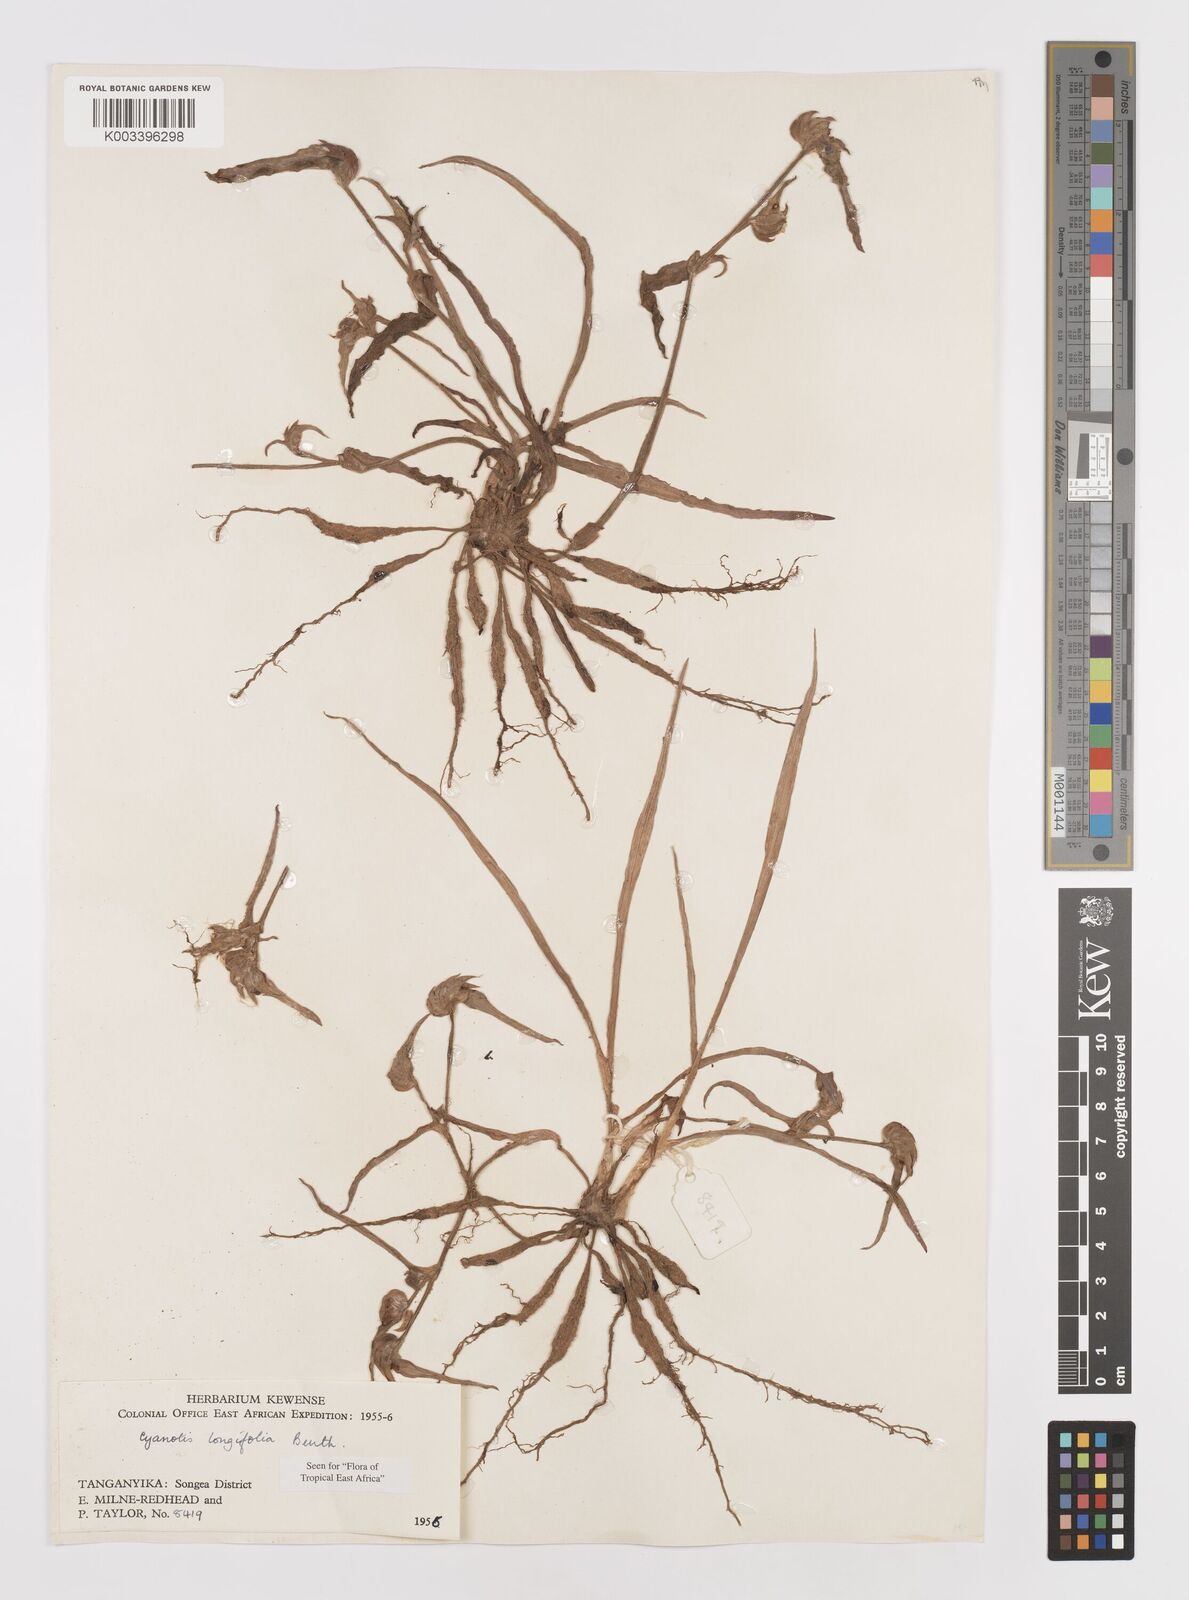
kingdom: Plantae
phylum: Tracheophyta
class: Liliopsida
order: Commelinales
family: Commelinaceae
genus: Cyanotis
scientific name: Cyanotis longifolia
